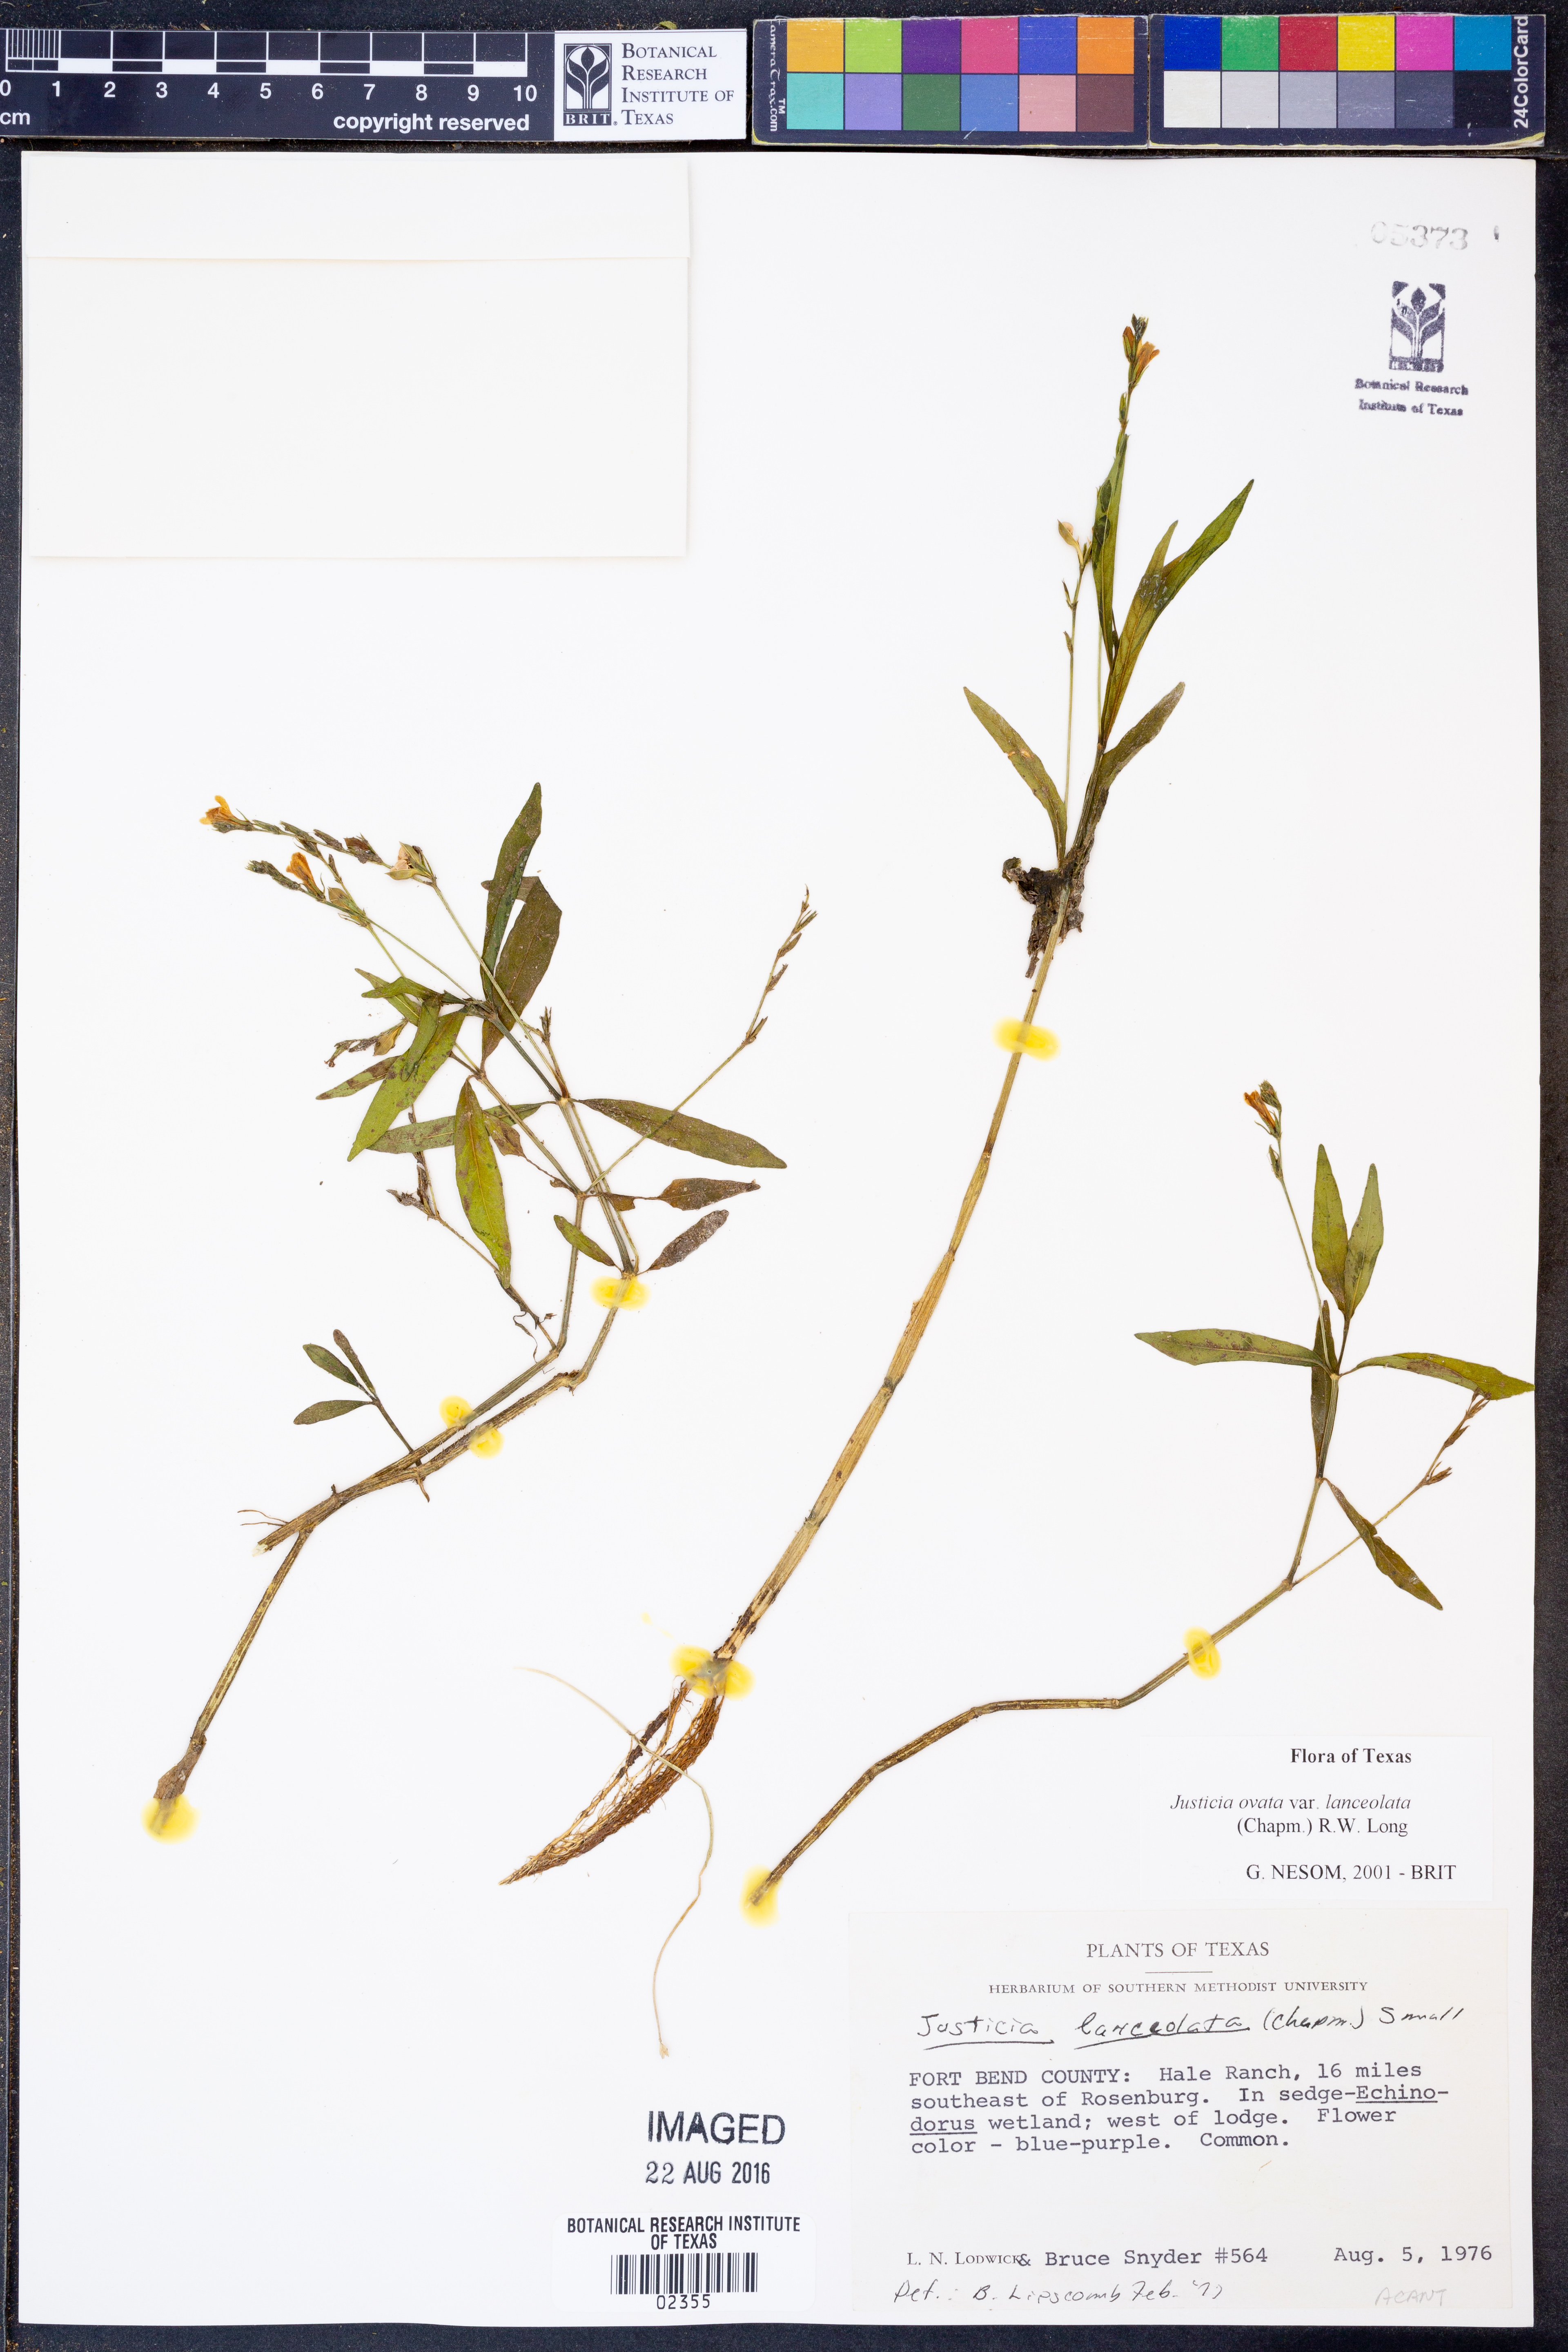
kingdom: Plantae
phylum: Tracheophyta
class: Magnoliopsida
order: Lamiales
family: Acanthaceae
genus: Justicia
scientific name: Justicia lanceolata
